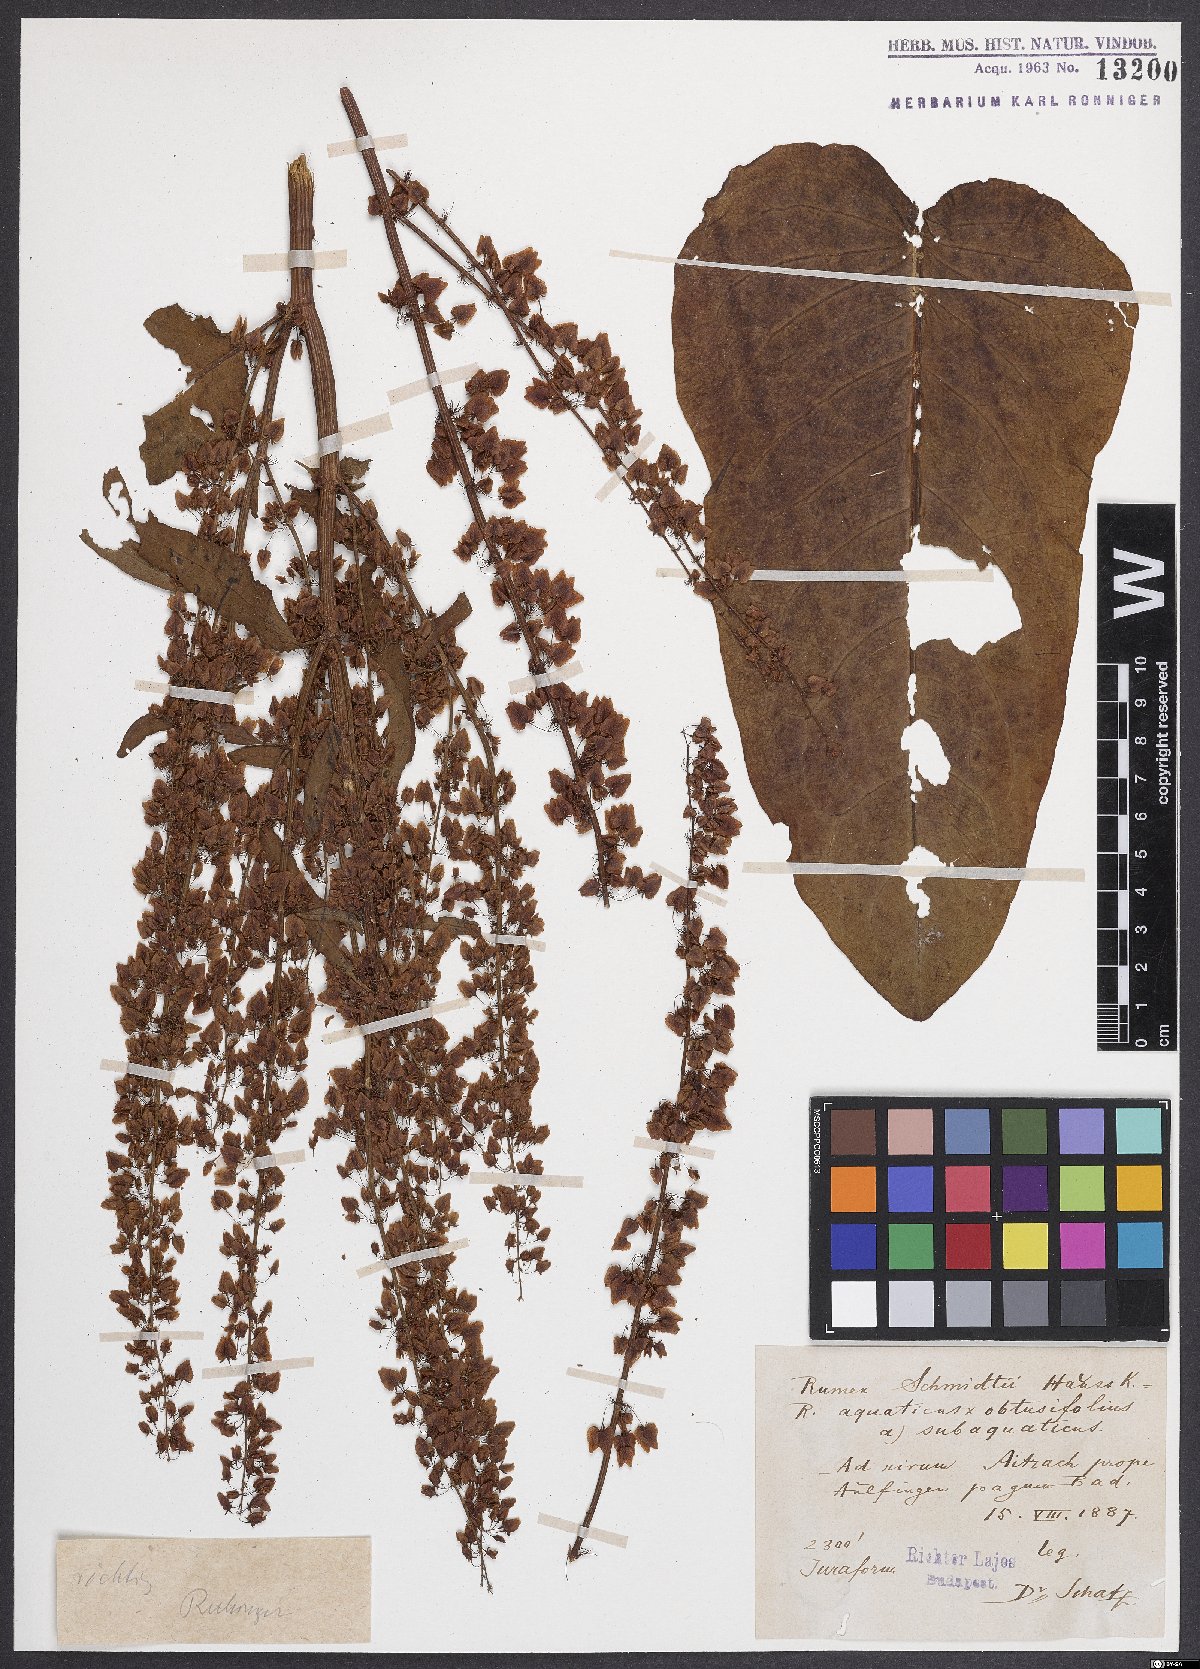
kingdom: Plantae
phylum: Tracheophyta
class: Magnoliopsida
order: Caryophyllales
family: Polygonaceae
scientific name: Polygonaceae
